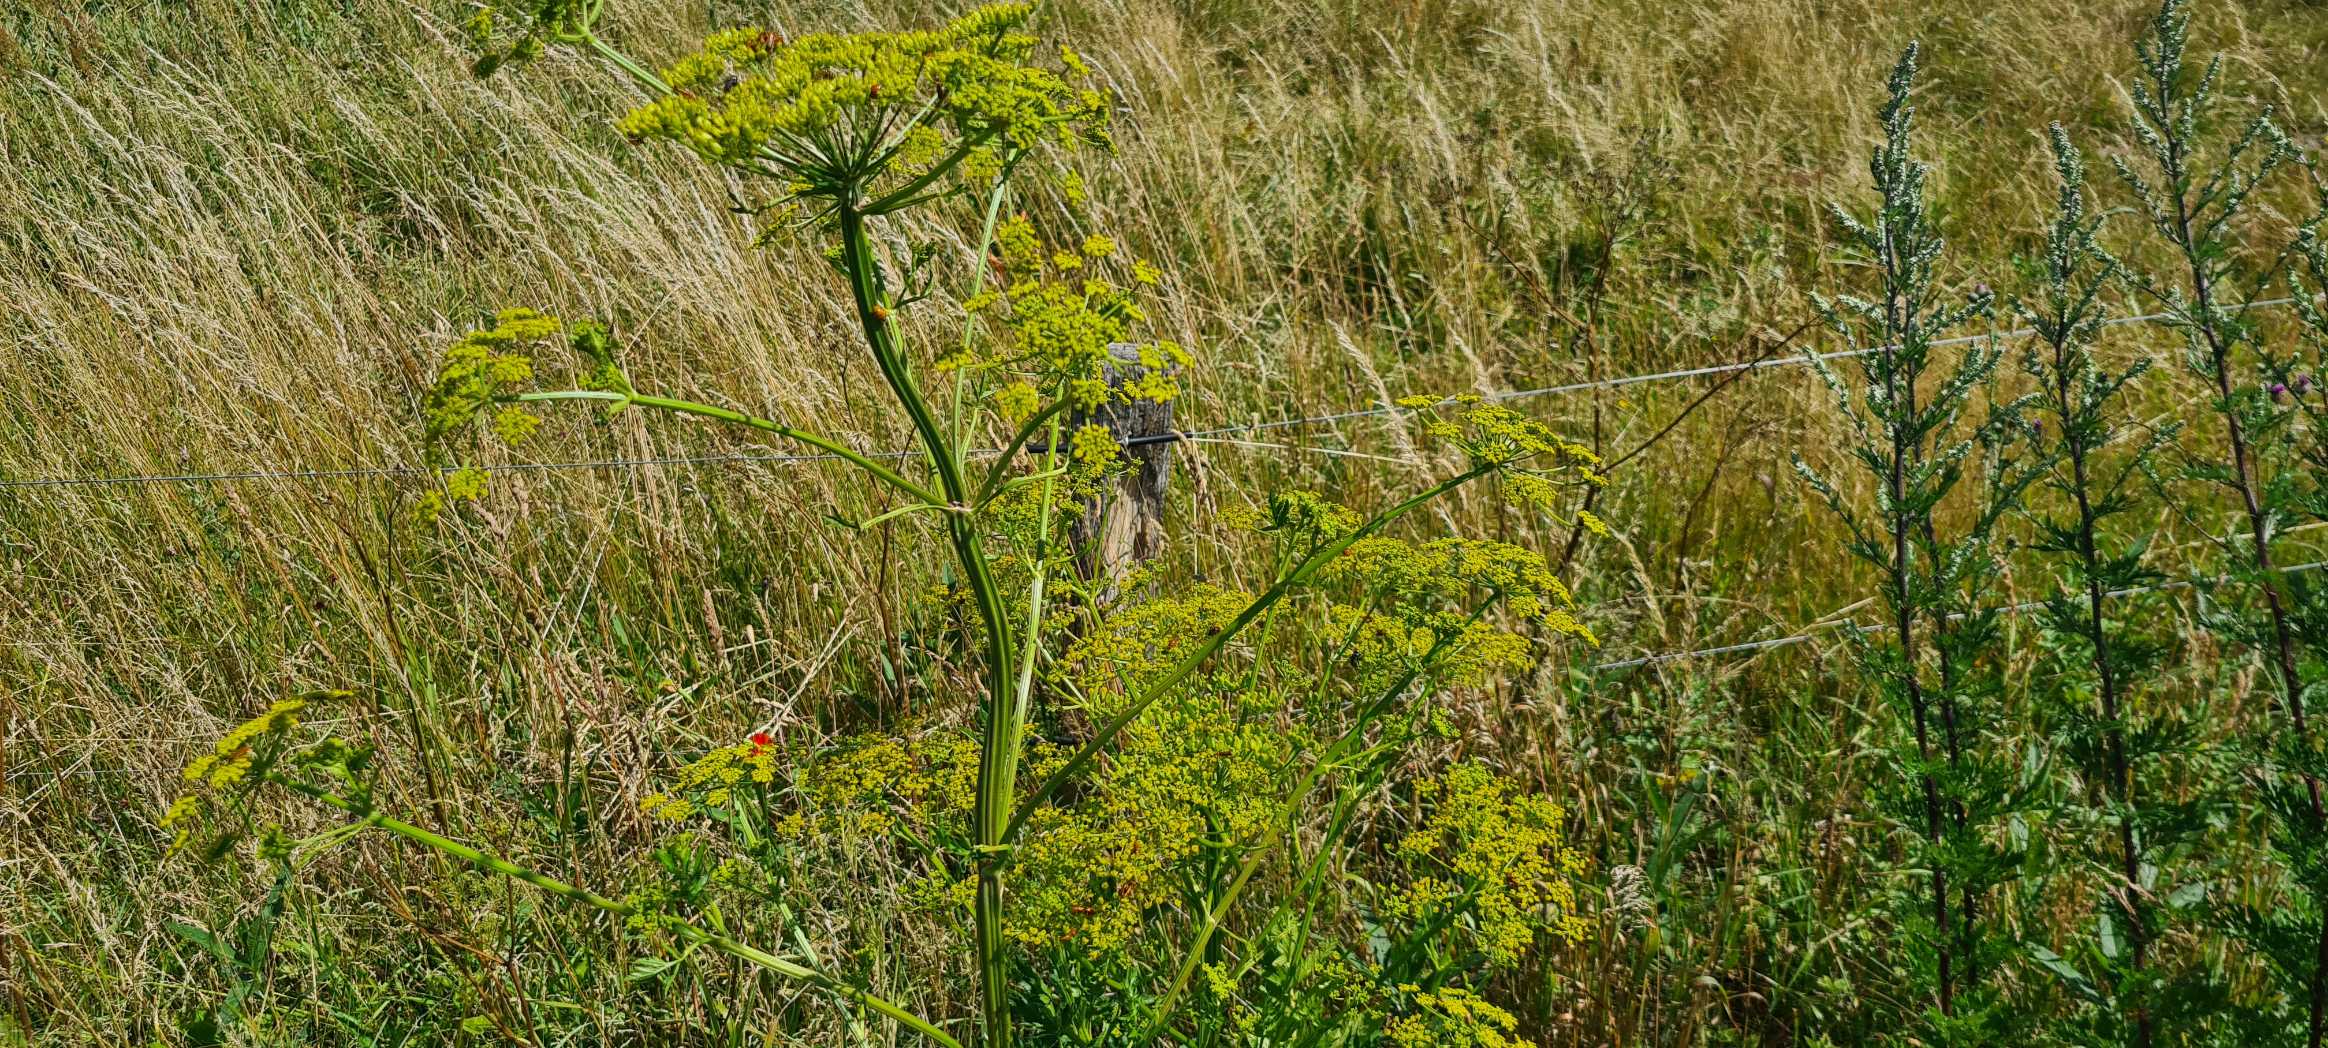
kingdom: Plantae
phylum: Tracheophyta
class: Magnoliopsida
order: Apiales
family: Apiaceae
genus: Pastinaca
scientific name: Pastinaca sativa
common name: Pastinak
